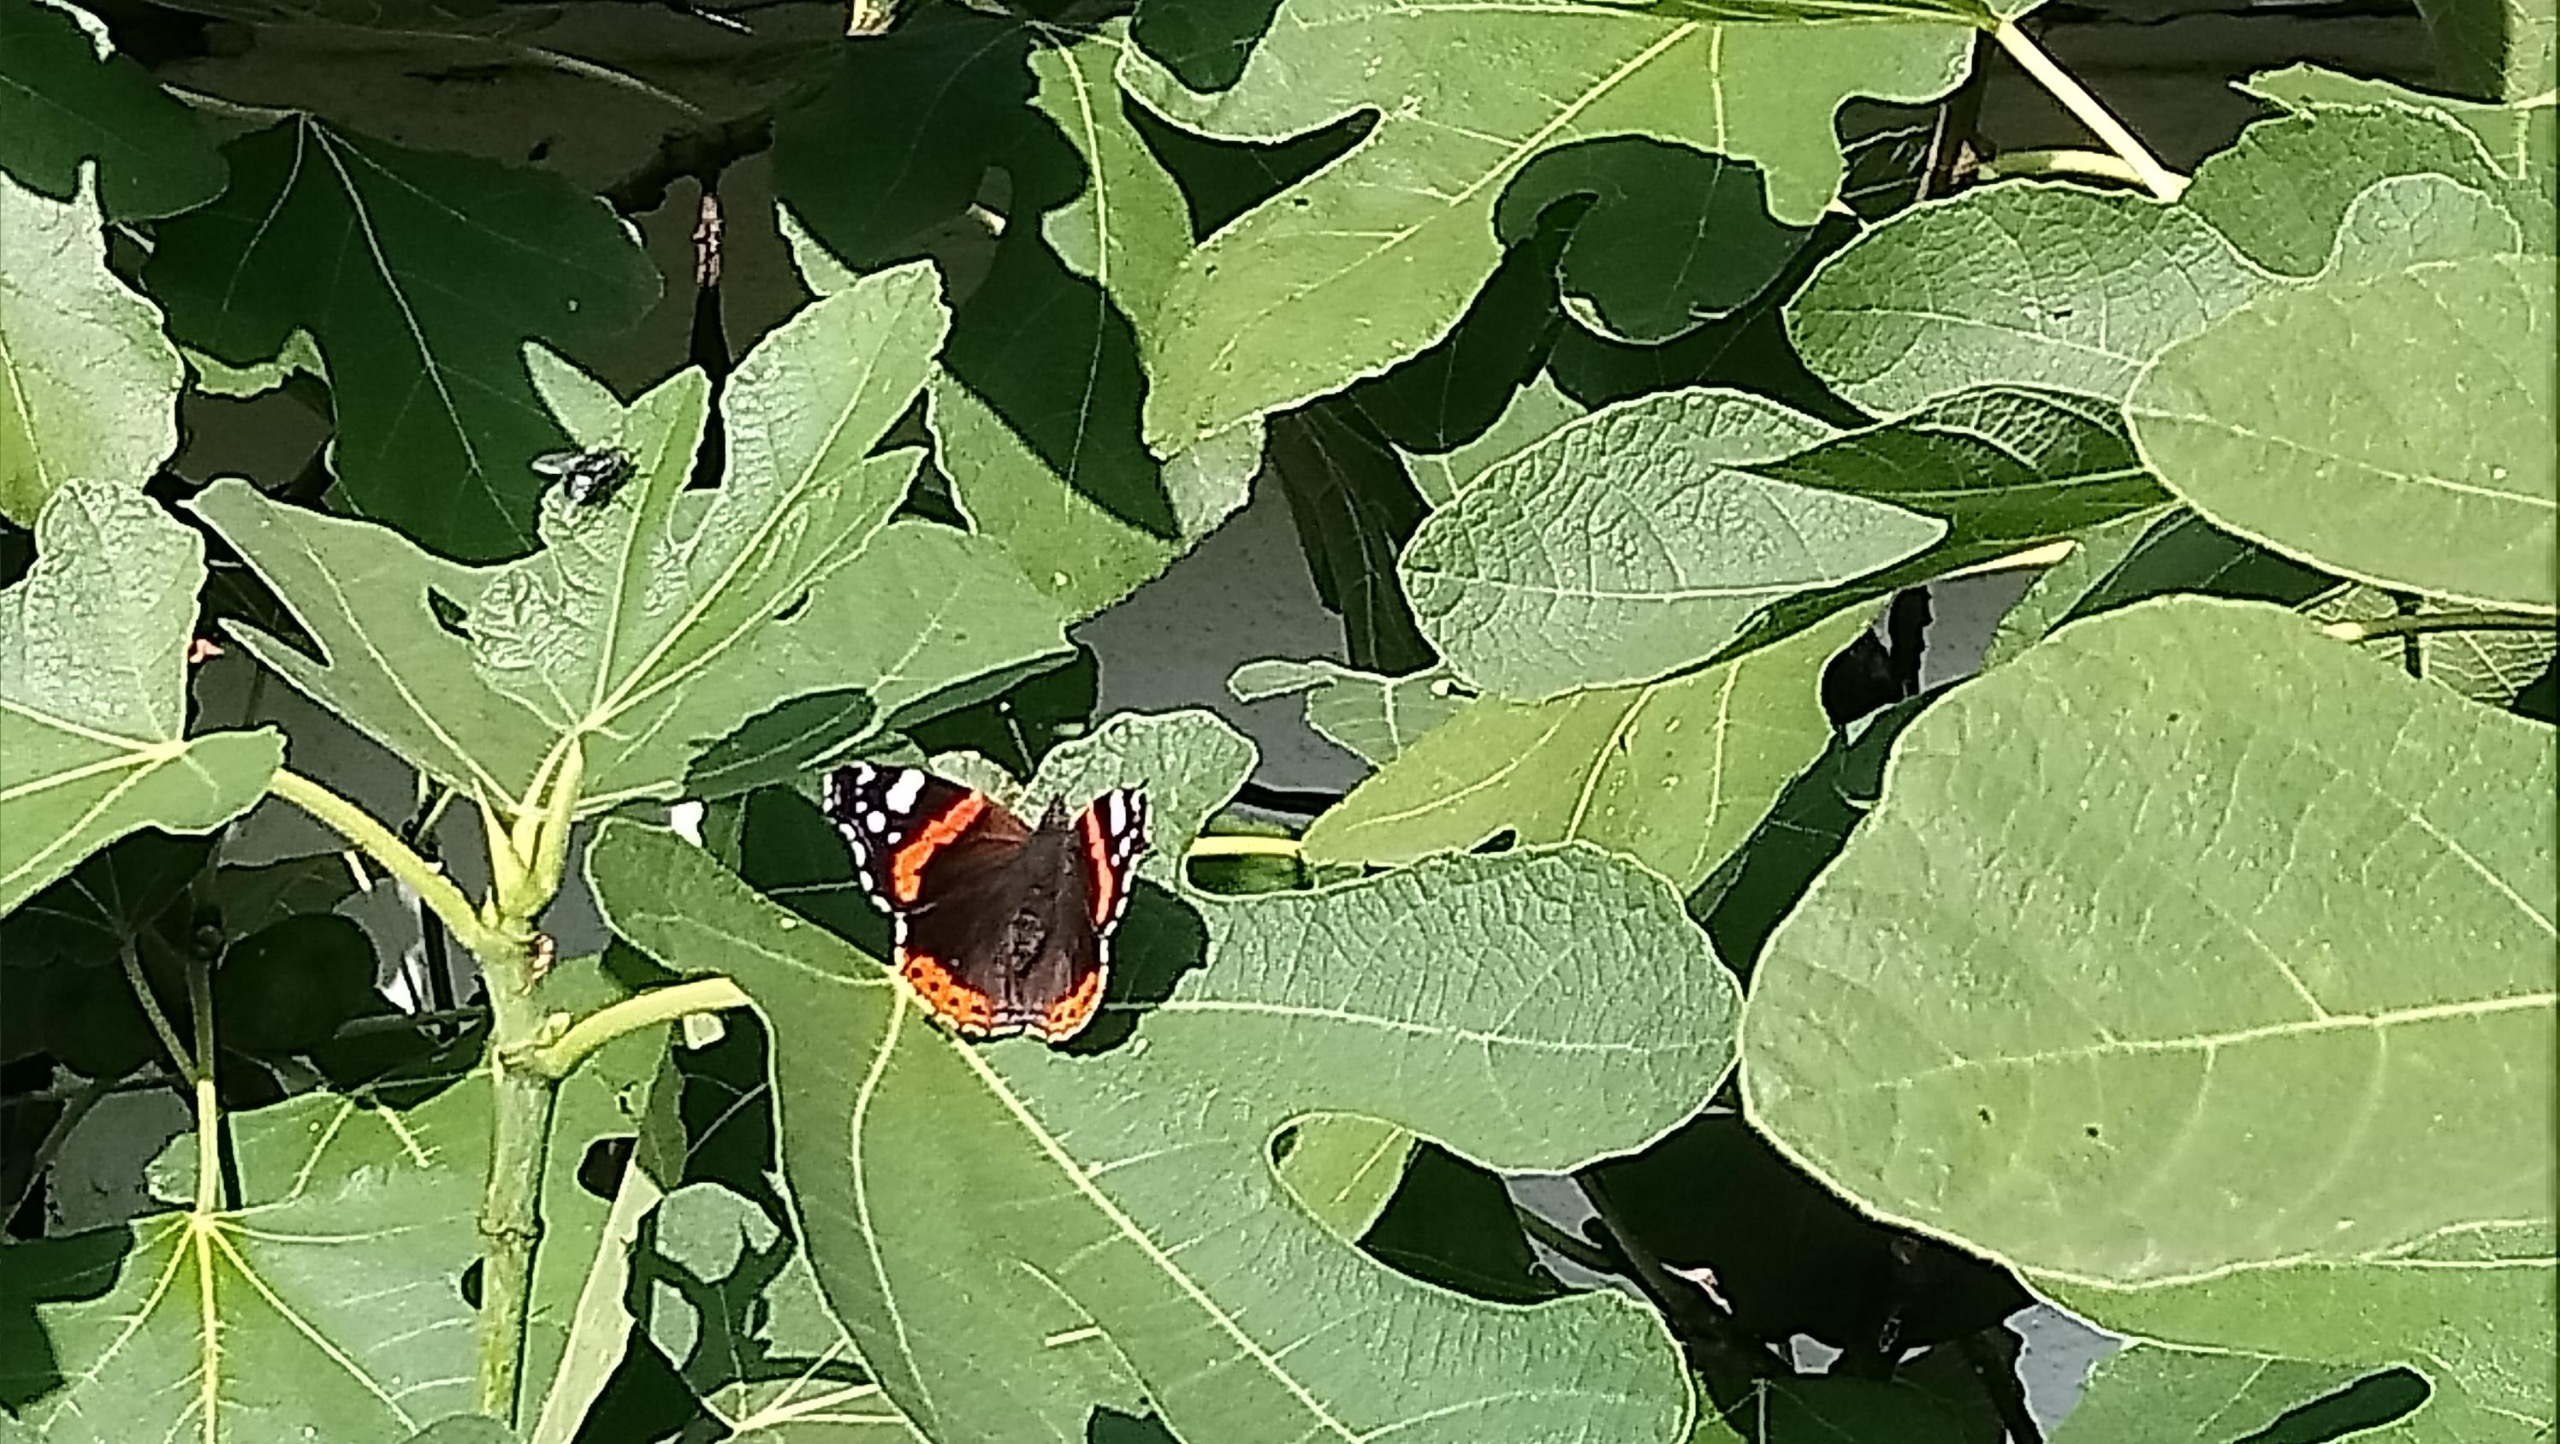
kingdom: Animalia
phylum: Arthropoda
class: Insecta
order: Lepidoptera
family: Nymphalidae
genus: Vanessa
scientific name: Vanessa atalanta
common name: Admiral
